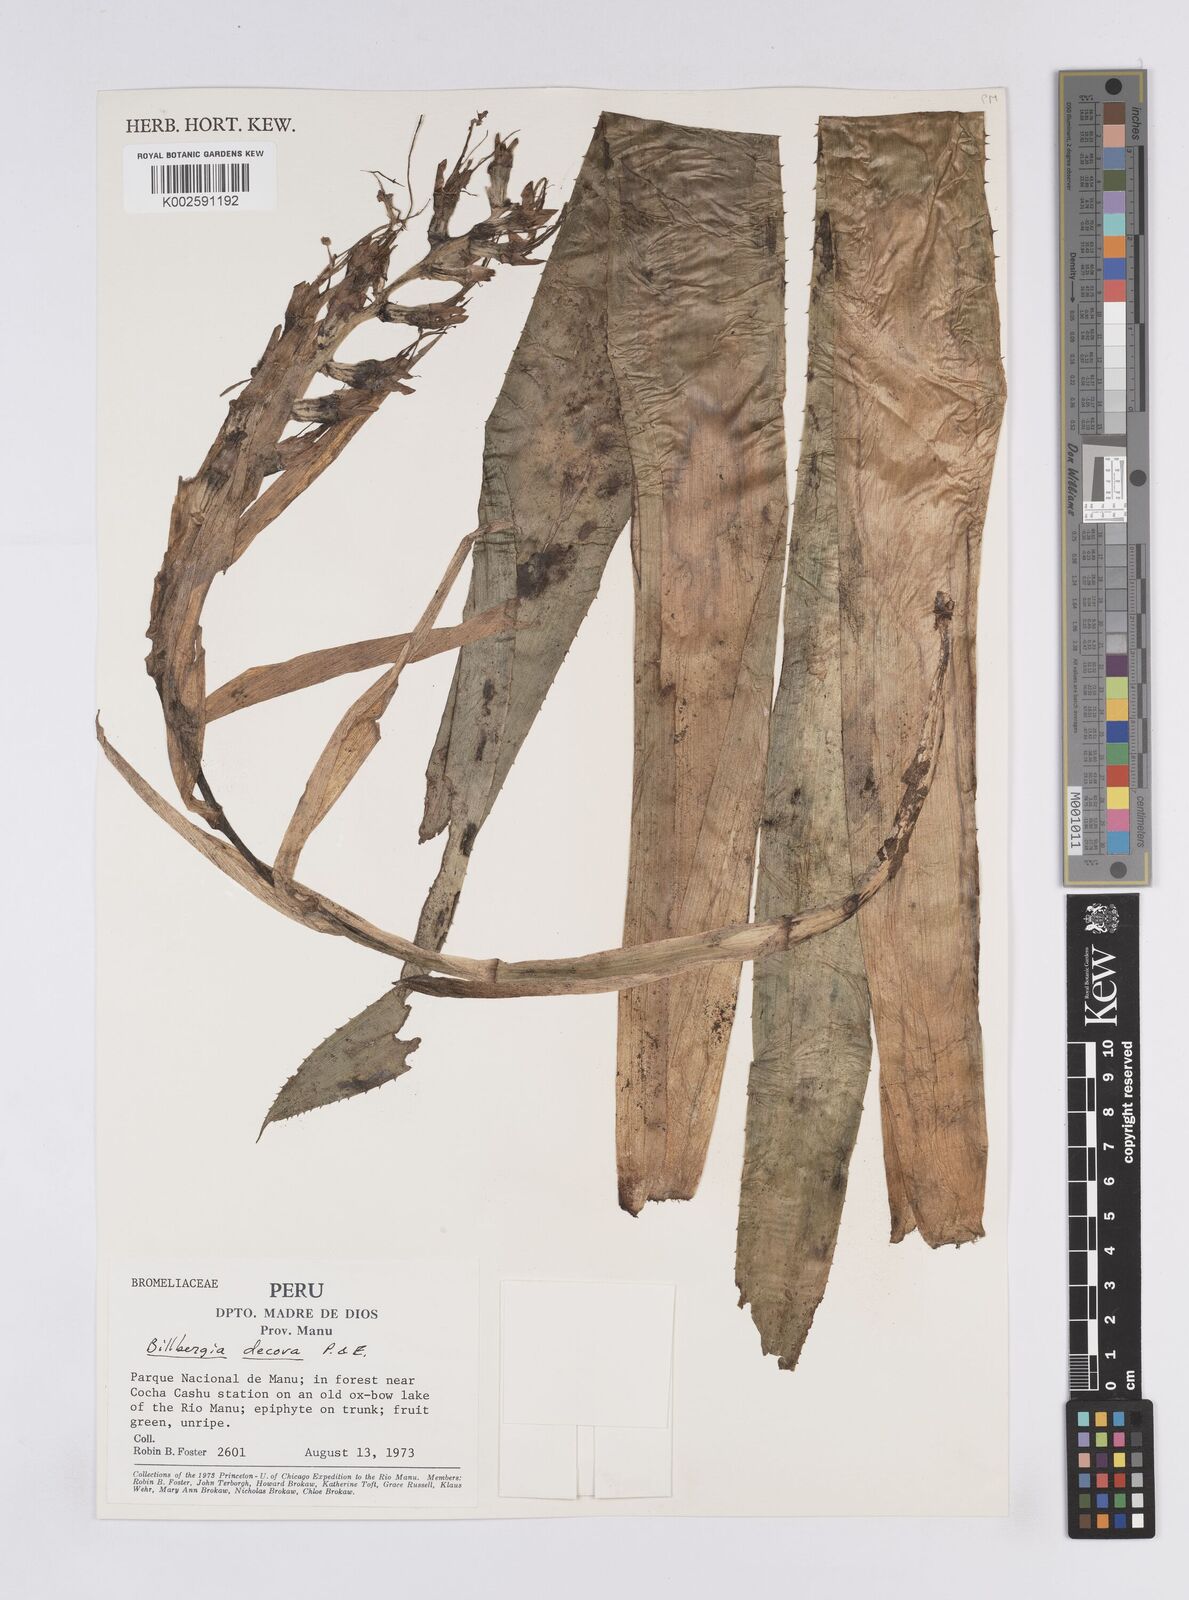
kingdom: Plantae
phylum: Tracheophyta
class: Liliopsida
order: Poales
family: Bromeliaceae
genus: Billbergia
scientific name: Billbergia decora
